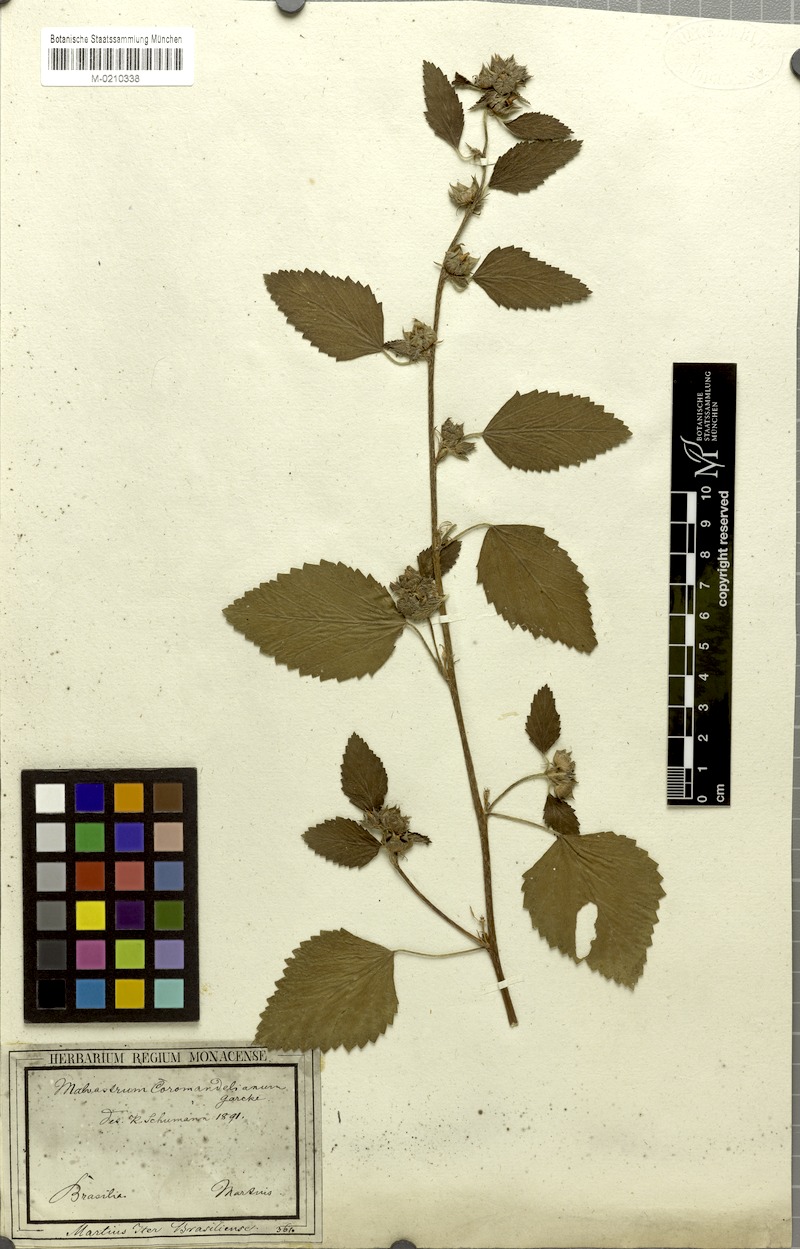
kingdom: Plantae
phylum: Tracheophyta
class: Magnoliopsida
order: Malvales
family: Malvaceae
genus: Malvastrum
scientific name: Malvastrum coromandelianum
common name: Threelobe false mallow
